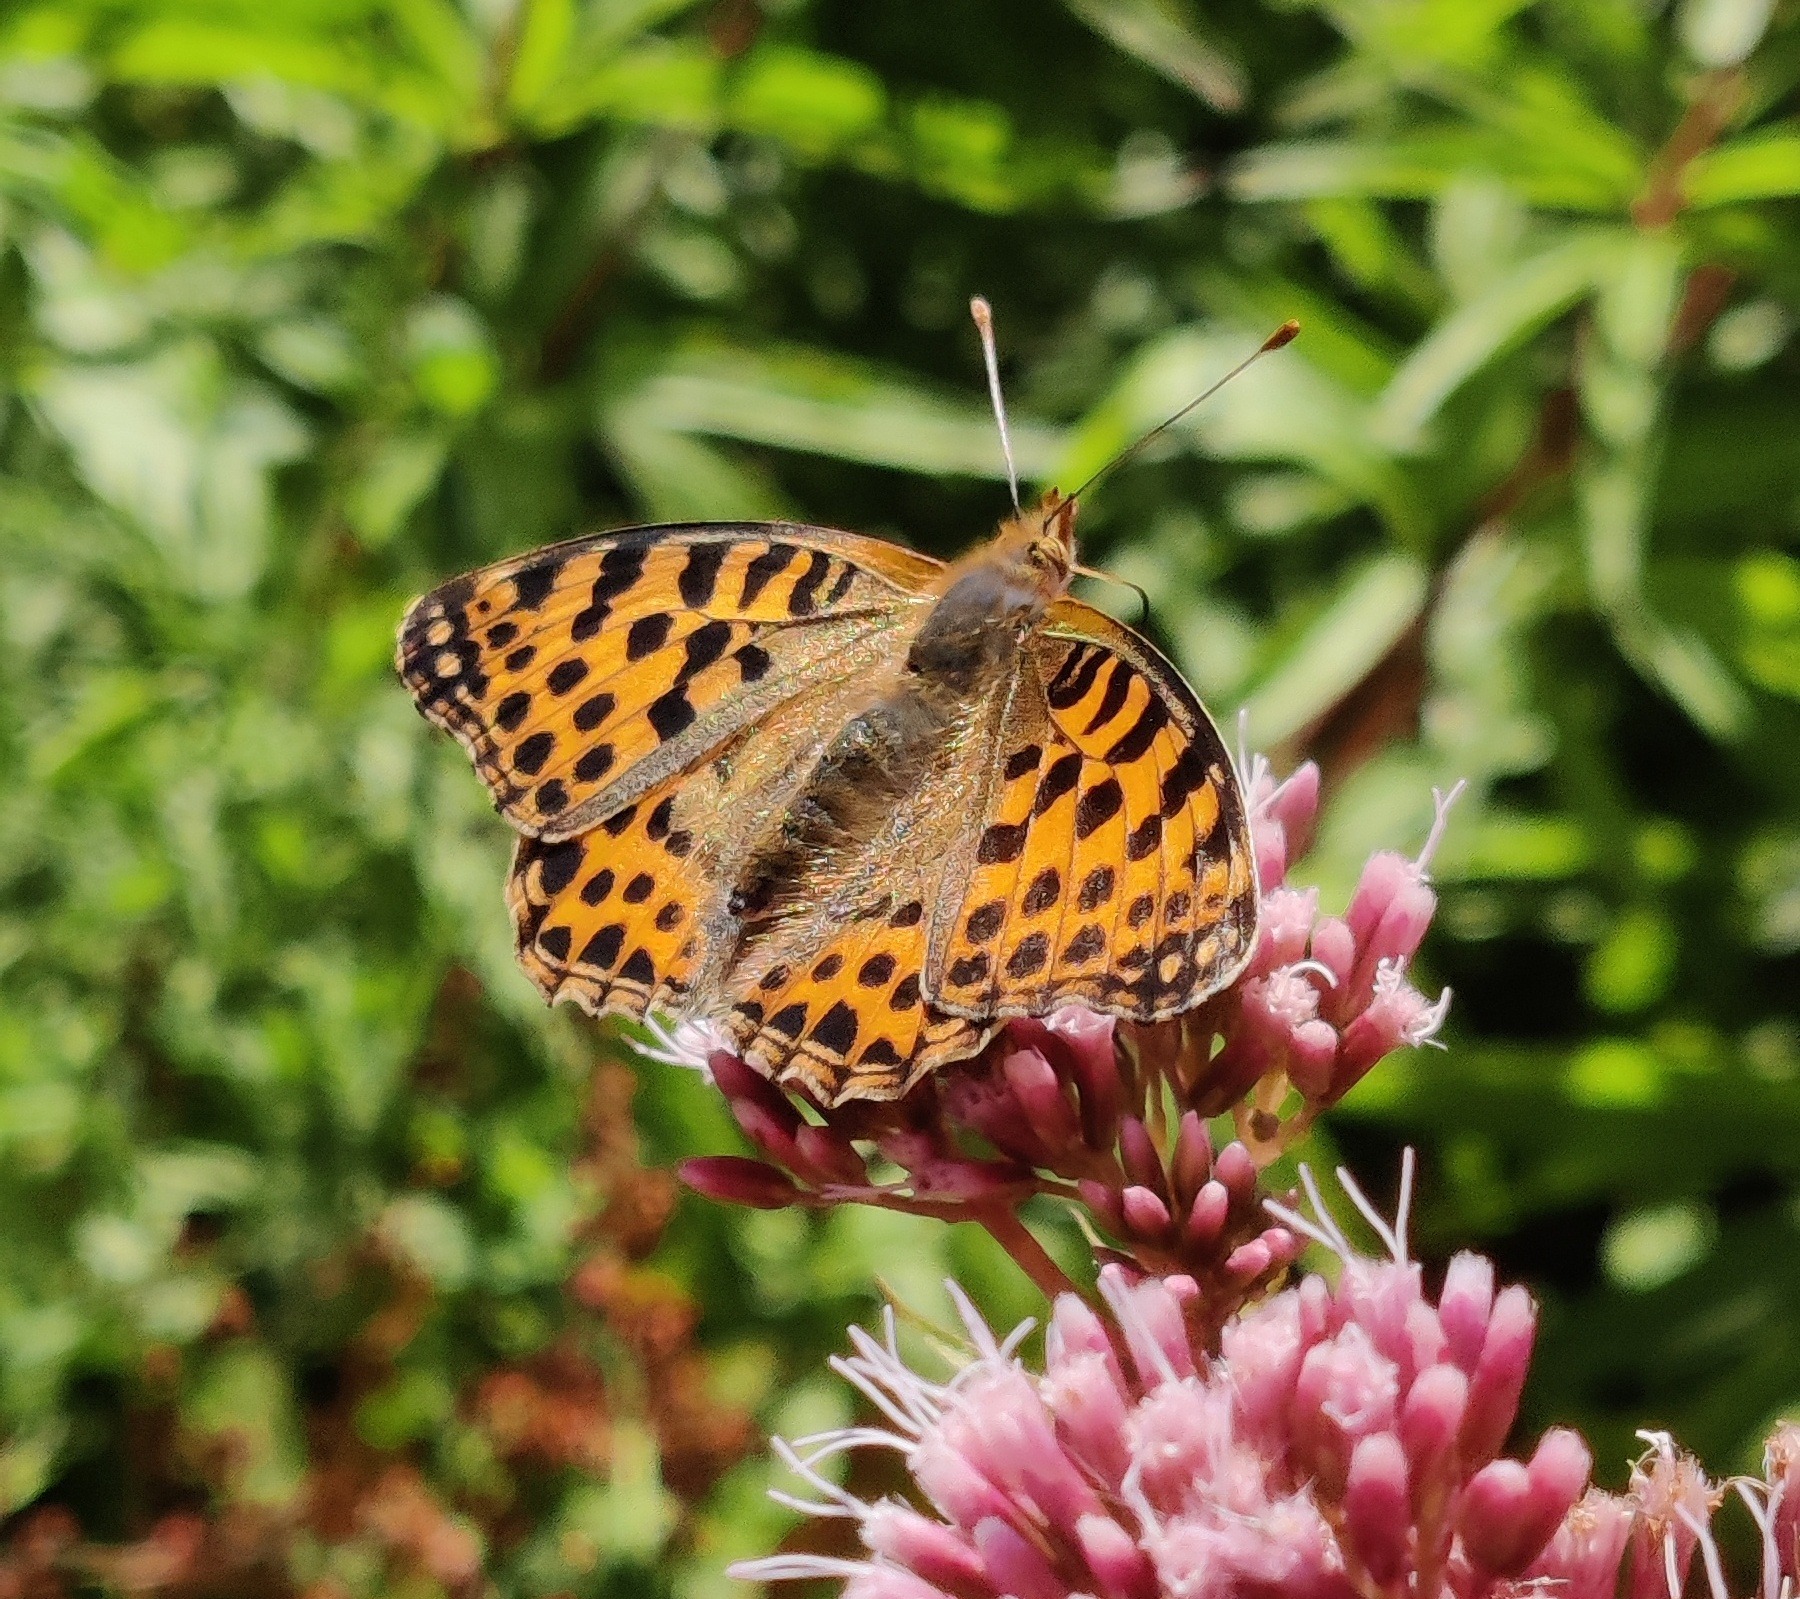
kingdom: Animalia
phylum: Arthropoda
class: Insecta
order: Lepidoptera
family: Nymphalidae
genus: Issoria
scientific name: Issoria lathonia
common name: Storplettet perlemorsommerfugl
